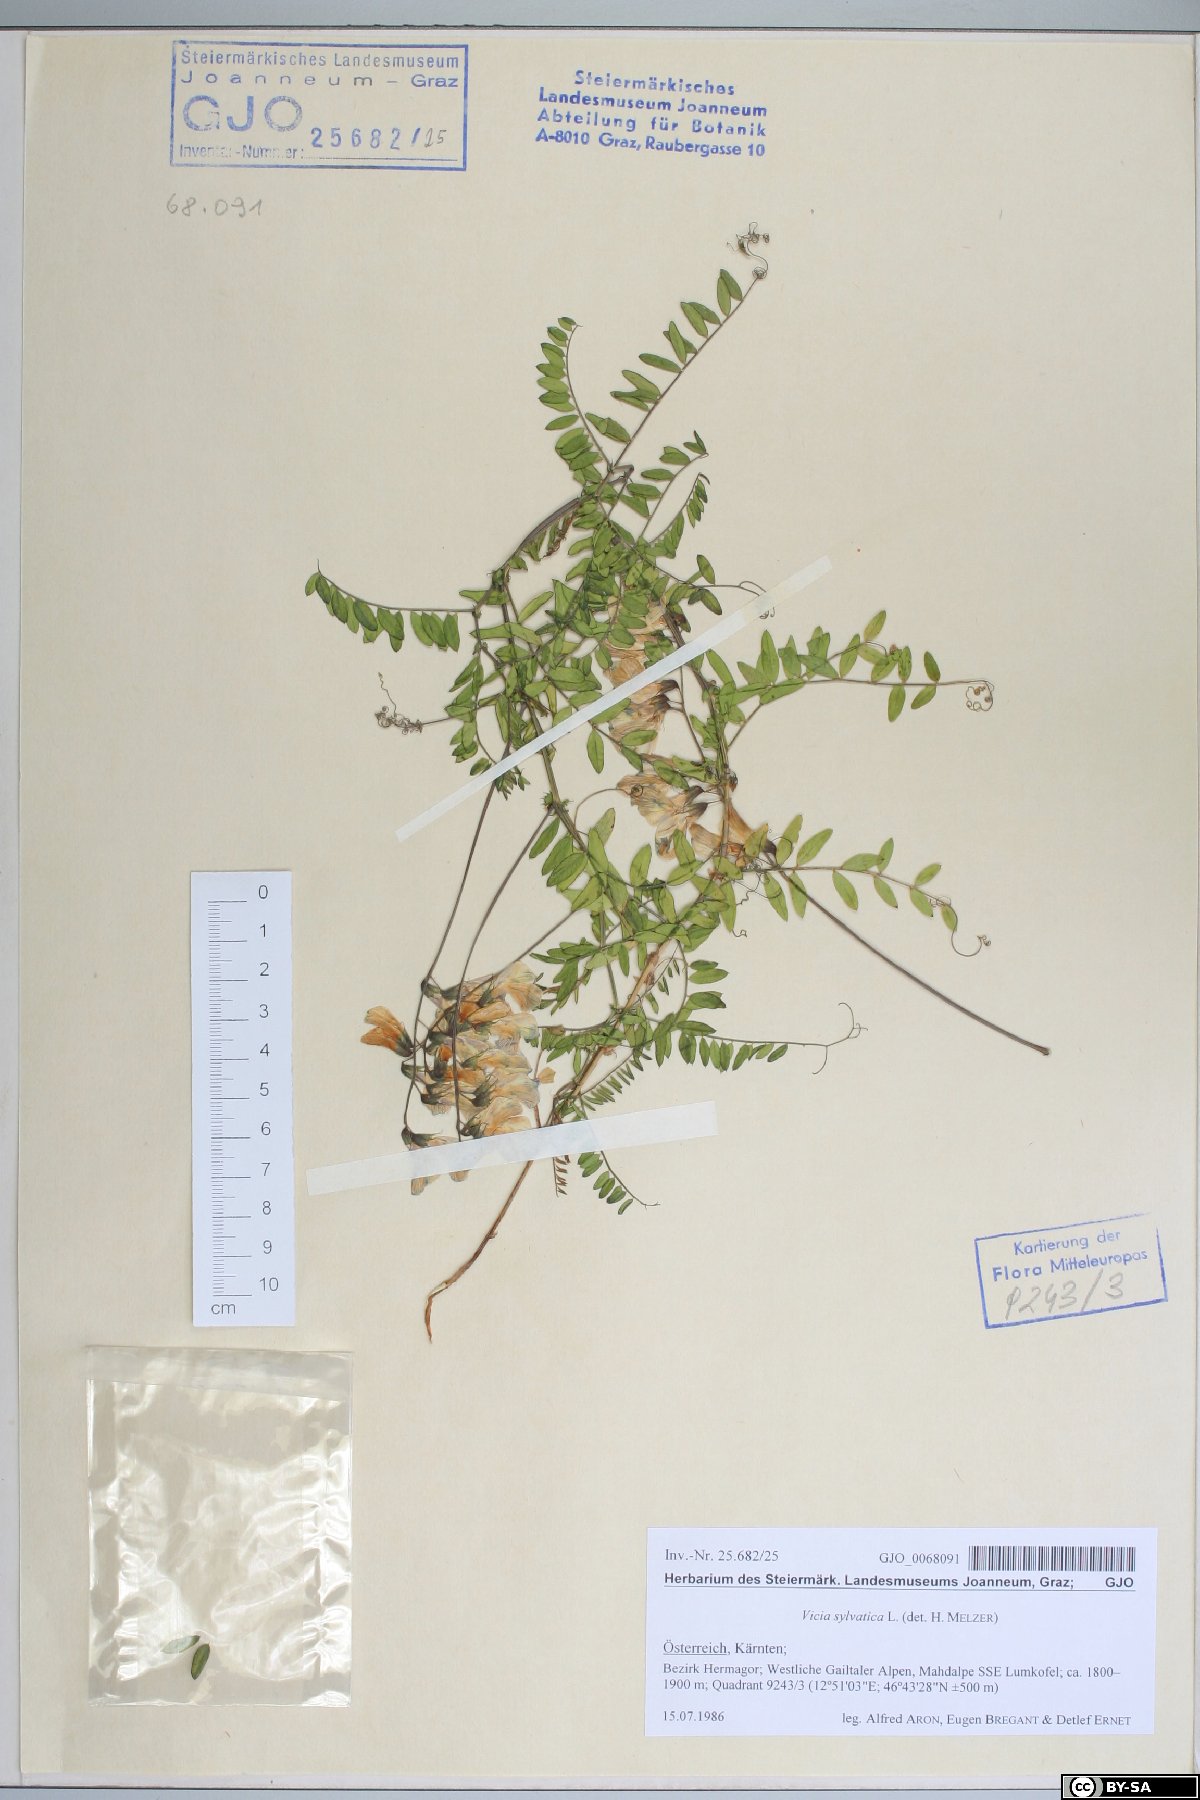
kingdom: Plantae
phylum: Tracheophyta
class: Magnoliopsida
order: Fabales
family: Fabaceae
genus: Vicia
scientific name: Vicia sylvatica
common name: Wood vetch
